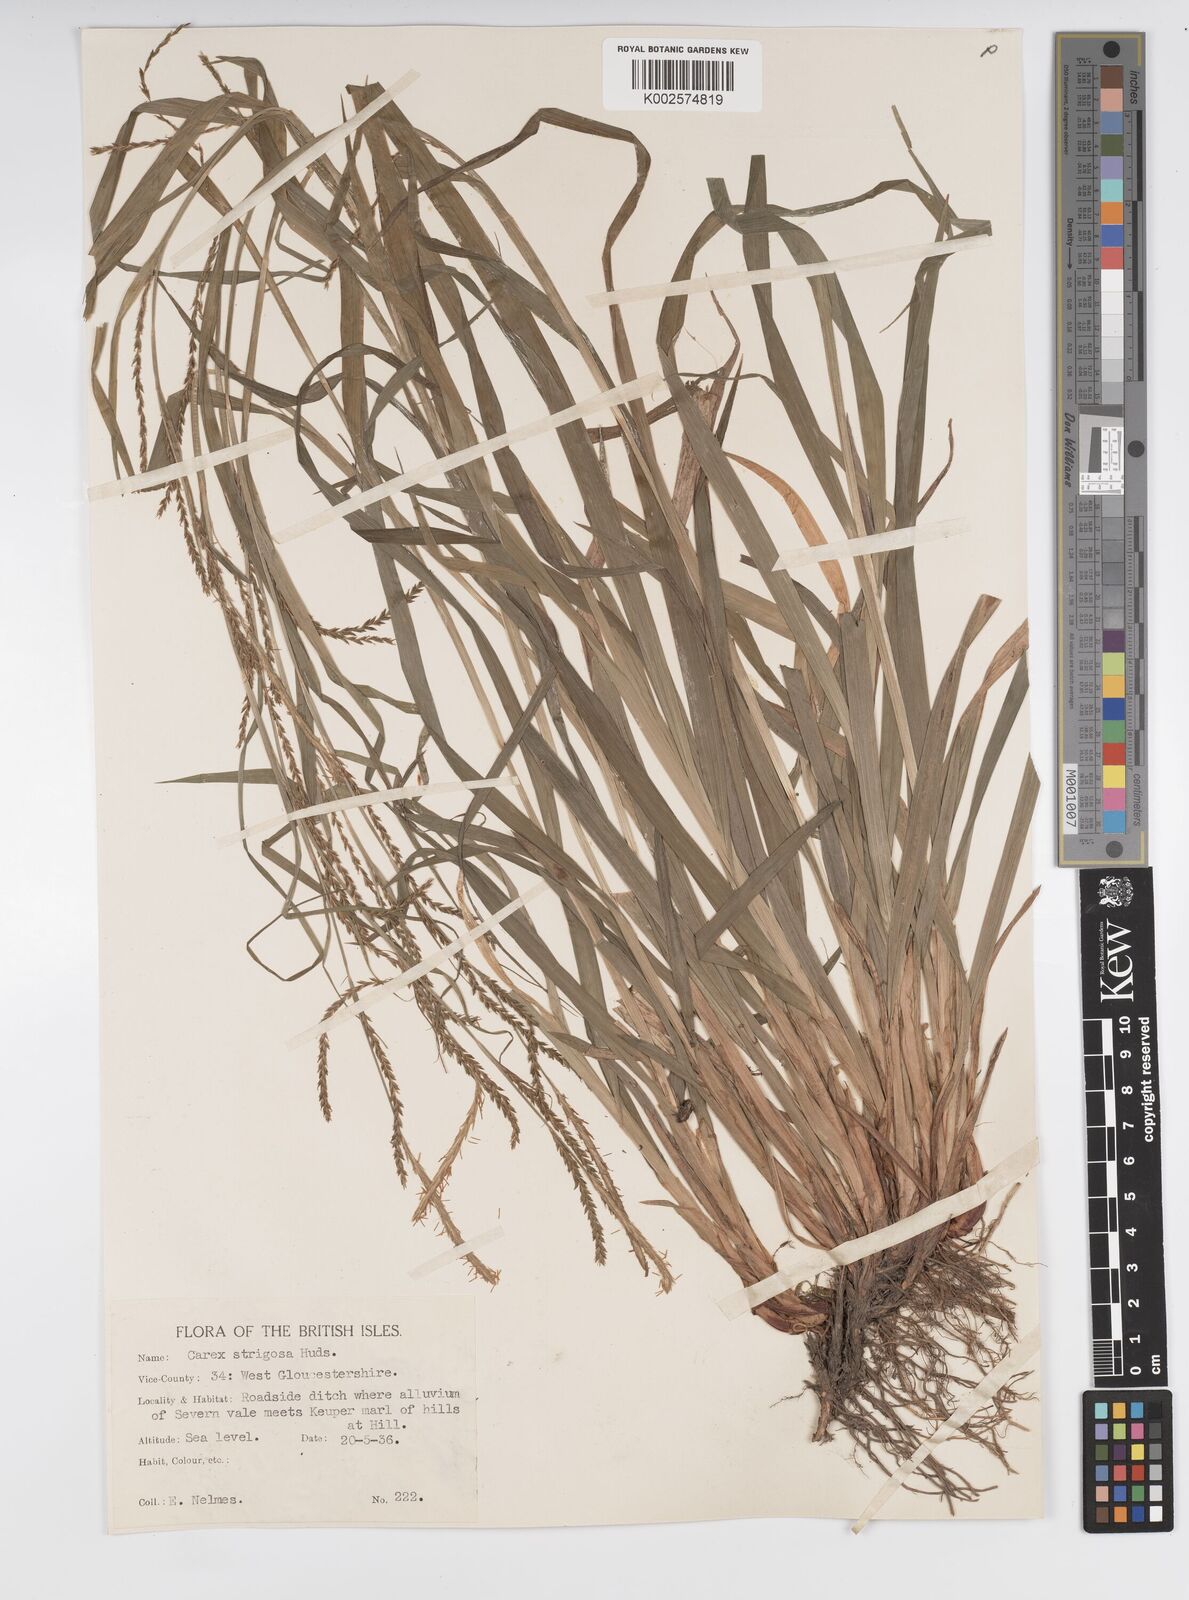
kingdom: Plantae
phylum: Tracheophyta
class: Liliopsida
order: Poales
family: Cyperaceae
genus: Carex
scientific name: Carex strigosa
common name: Thin-spiked wood-sedge
